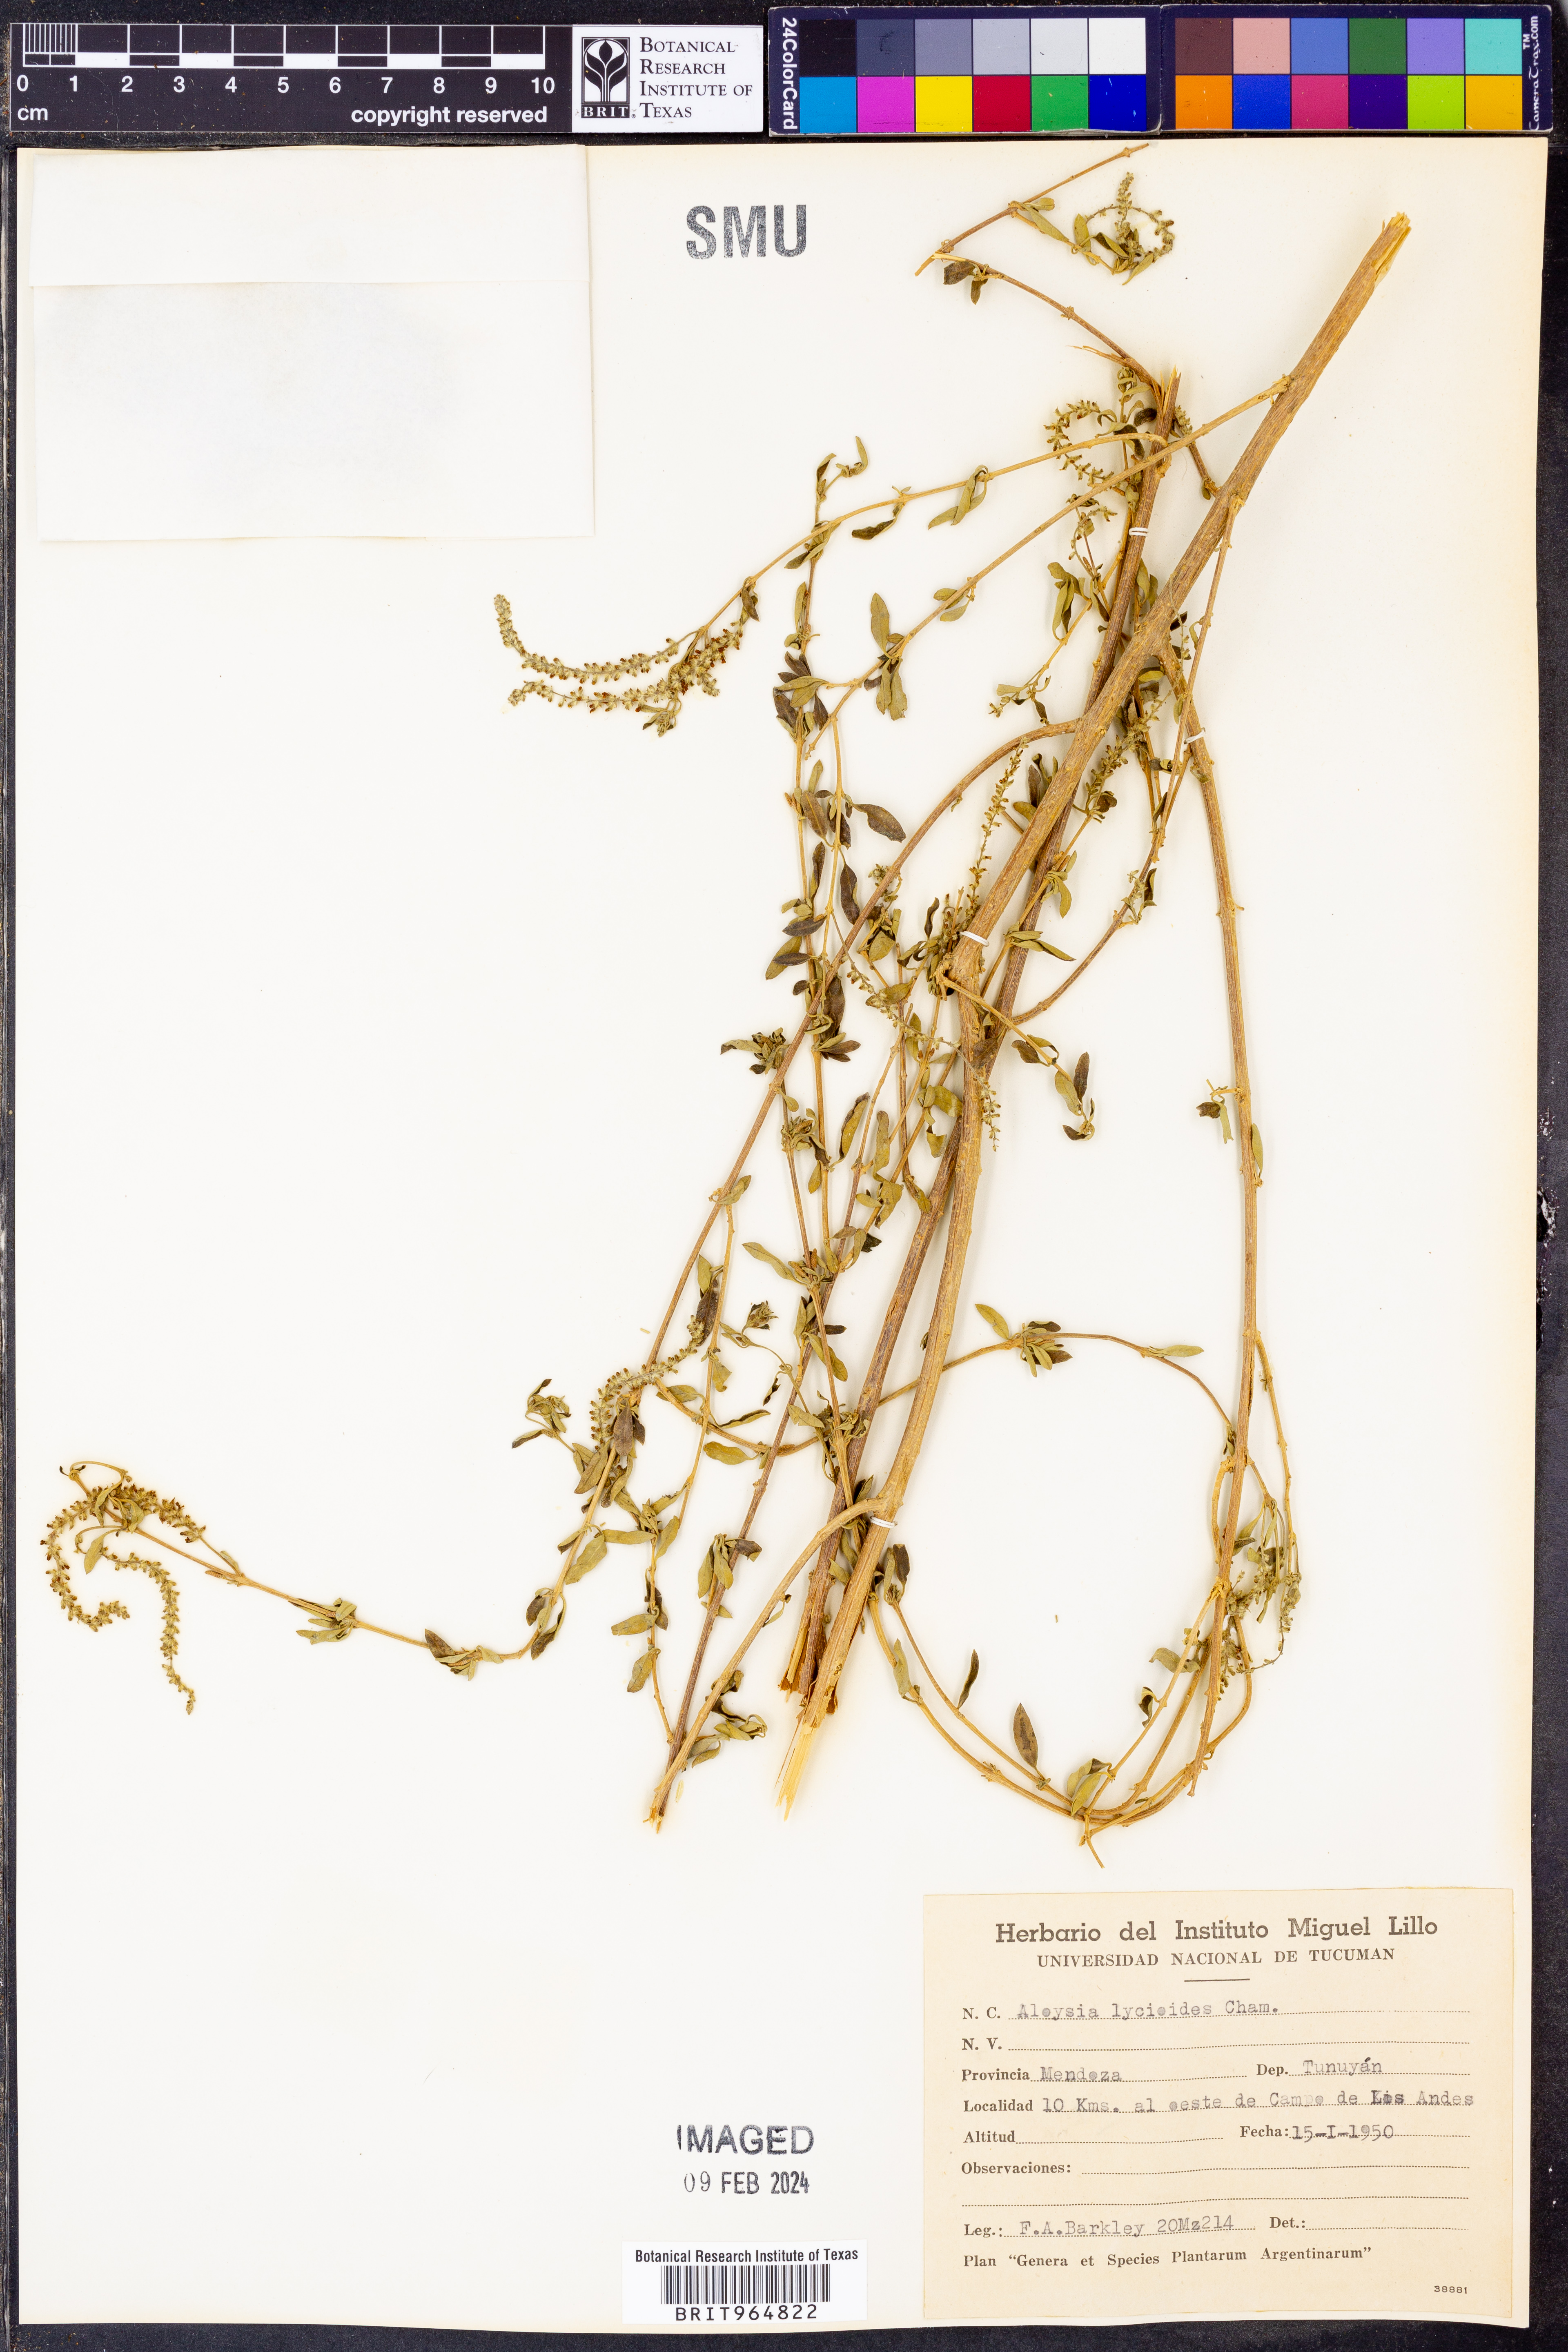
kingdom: Plantae
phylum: Tracheophyta
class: Magnoliopsida
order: Lamiales
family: Verbenaceae
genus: Aloysia
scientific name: Aloysia
